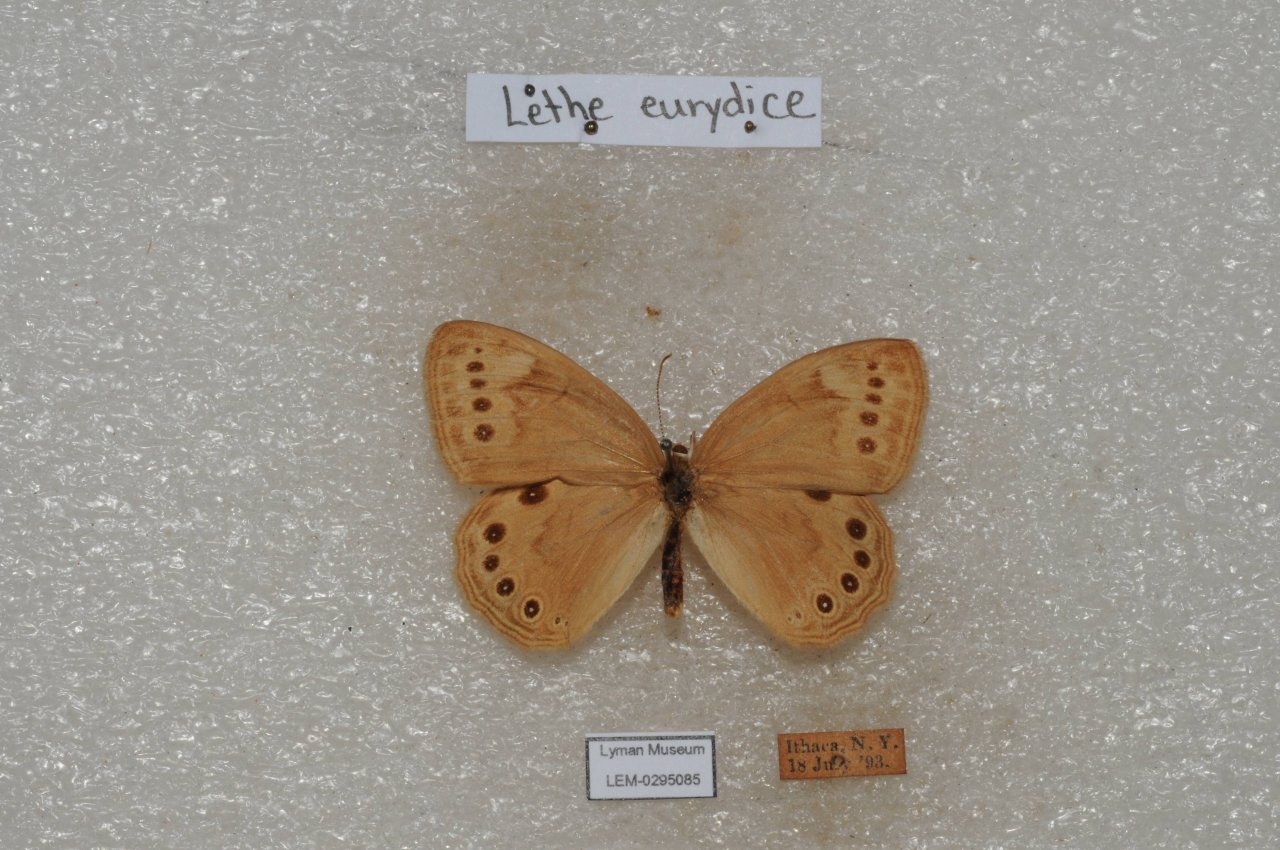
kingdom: Animalia
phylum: Arthropoda
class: Insecta
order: Lepidoptera
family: Nymphalidae
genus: Lethe
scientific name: Lethe eurydice
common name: Eyed Brown
